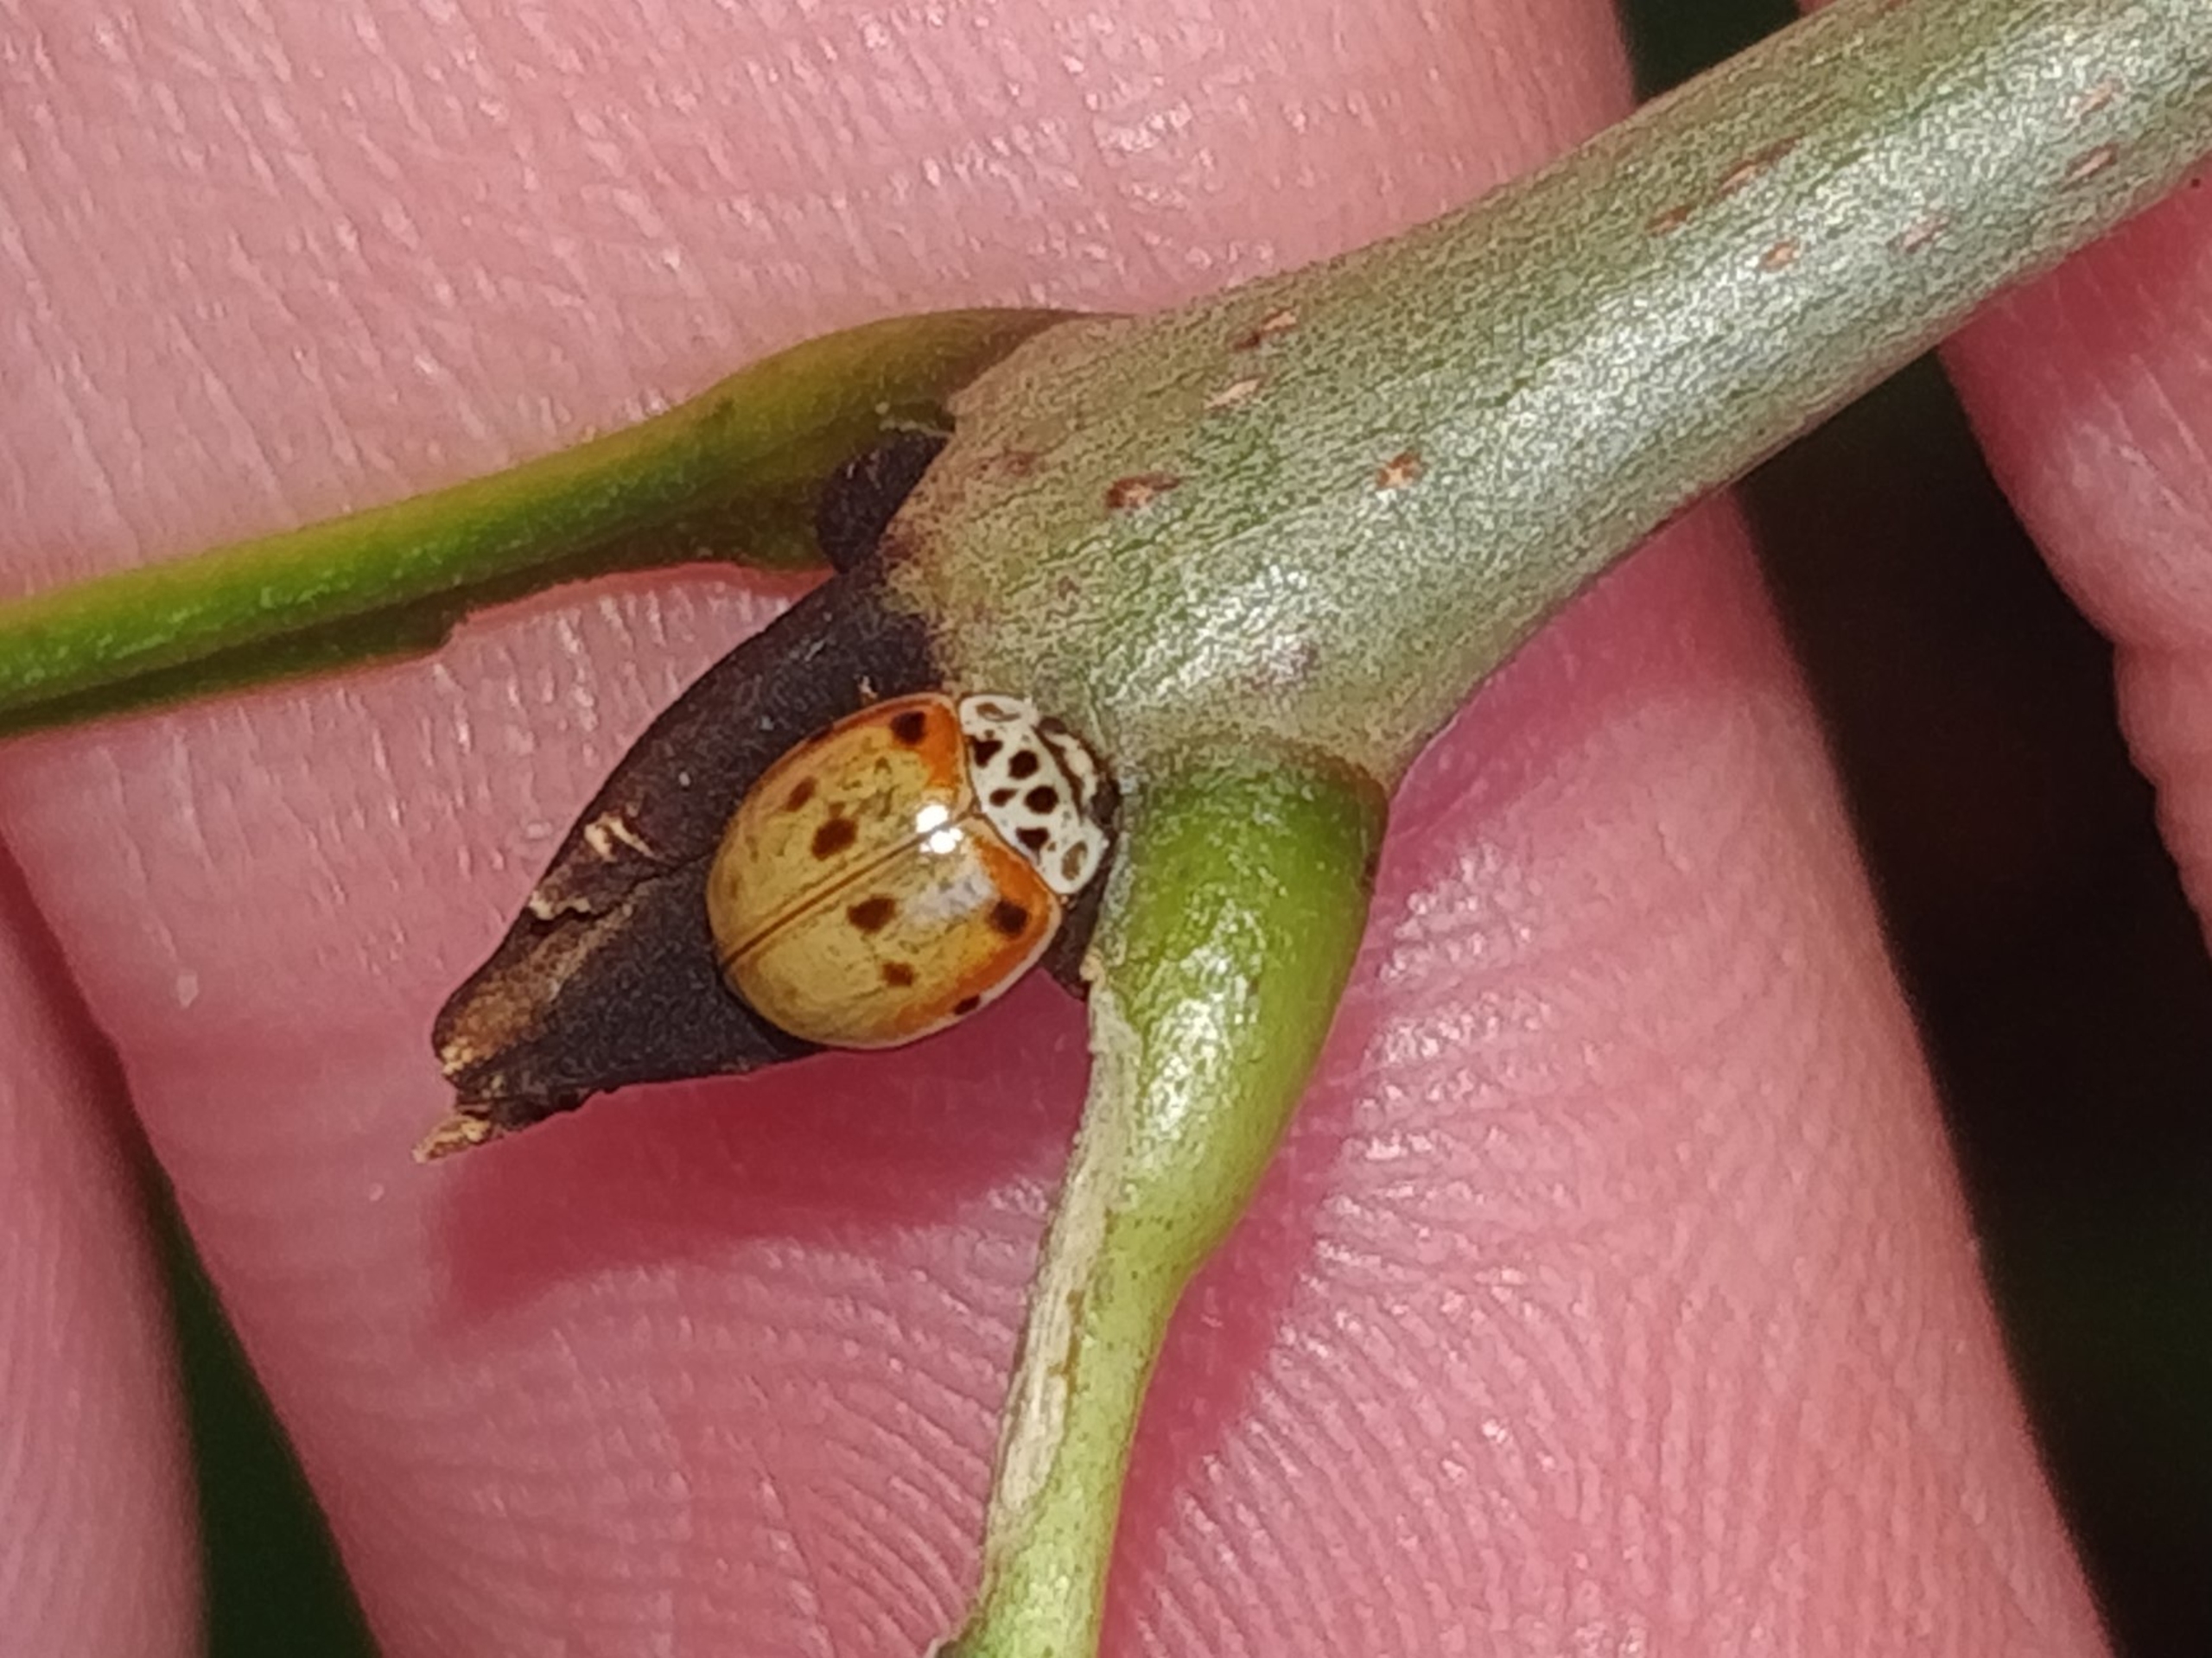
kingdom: Animalia
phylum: Arthropoda
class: Insecta
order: Coleoptera
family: Coccinellidae
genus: Adalia
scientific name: Adalia decempunctata
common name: Tiplettet mariehøne
